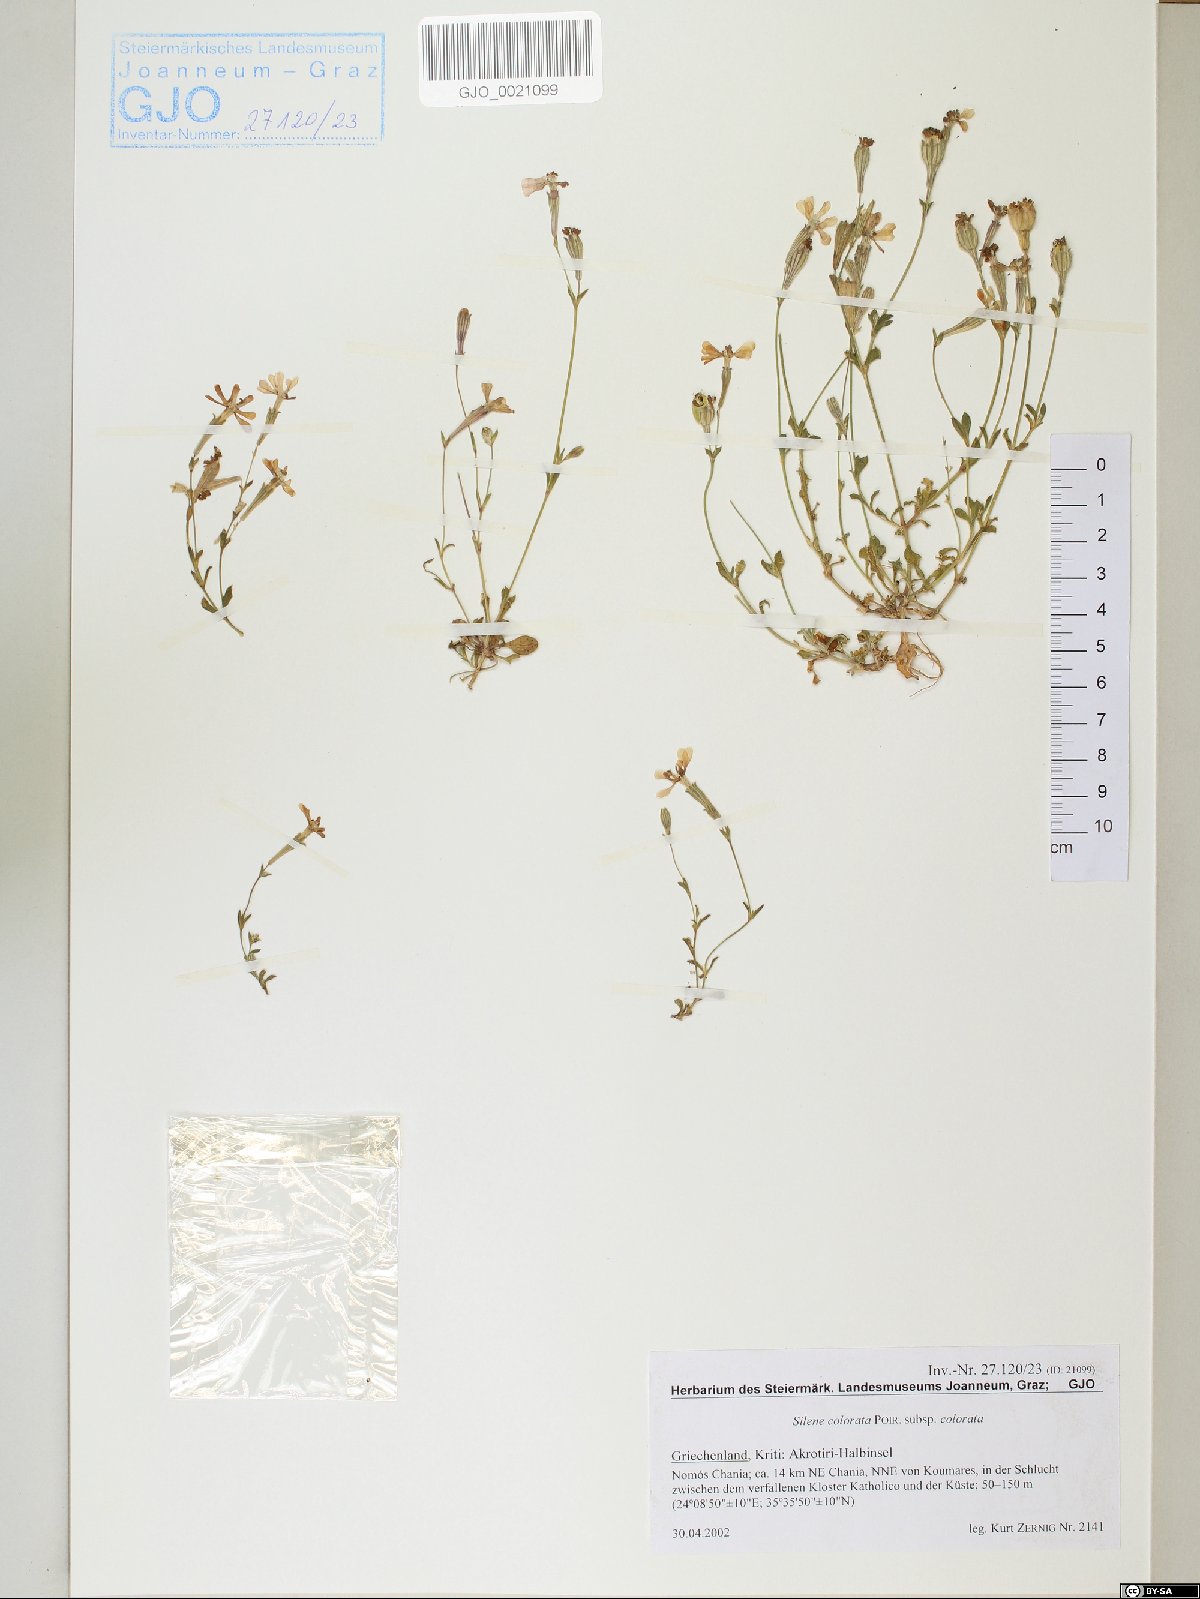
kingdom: Plantae
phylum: Tracheophyta
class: Magnoliopsida
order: Caryophyllales
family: Caryophyllaceae
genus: Silene
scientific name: Silene colorata
